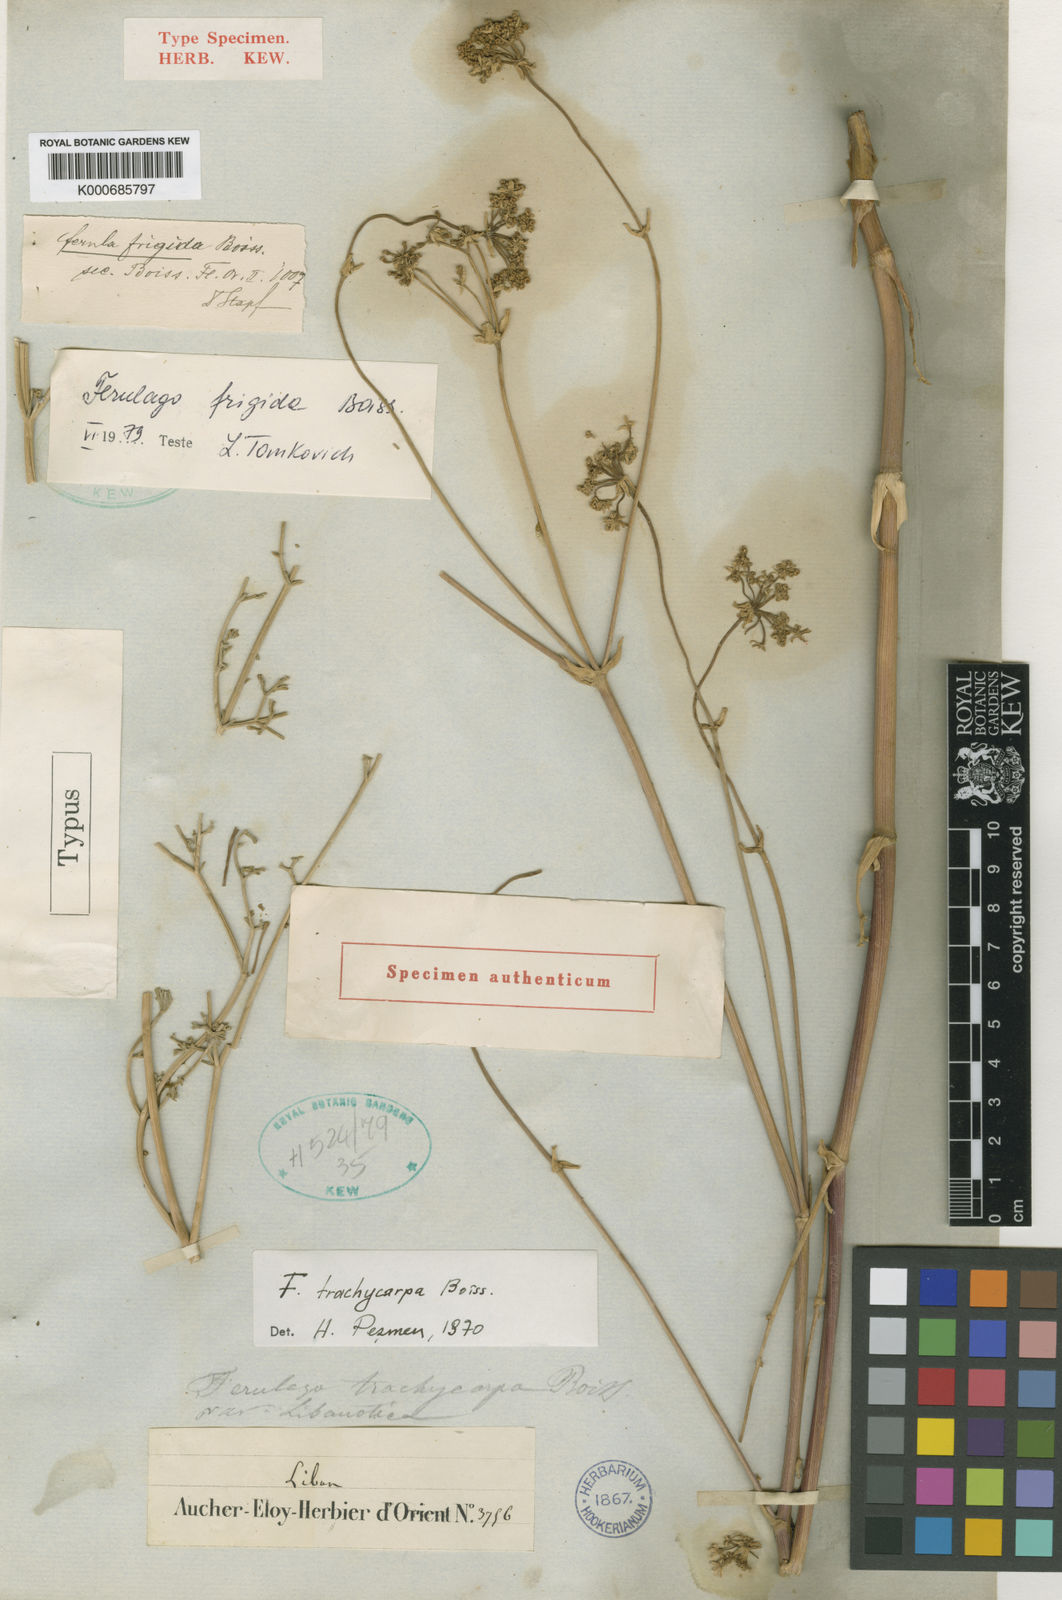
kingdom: Plantae
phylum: Tracheophyta
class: Magnoliopsida
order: Apiales
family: Apiaceae
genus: Ferulago
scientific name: Ferulago trachycarpa
